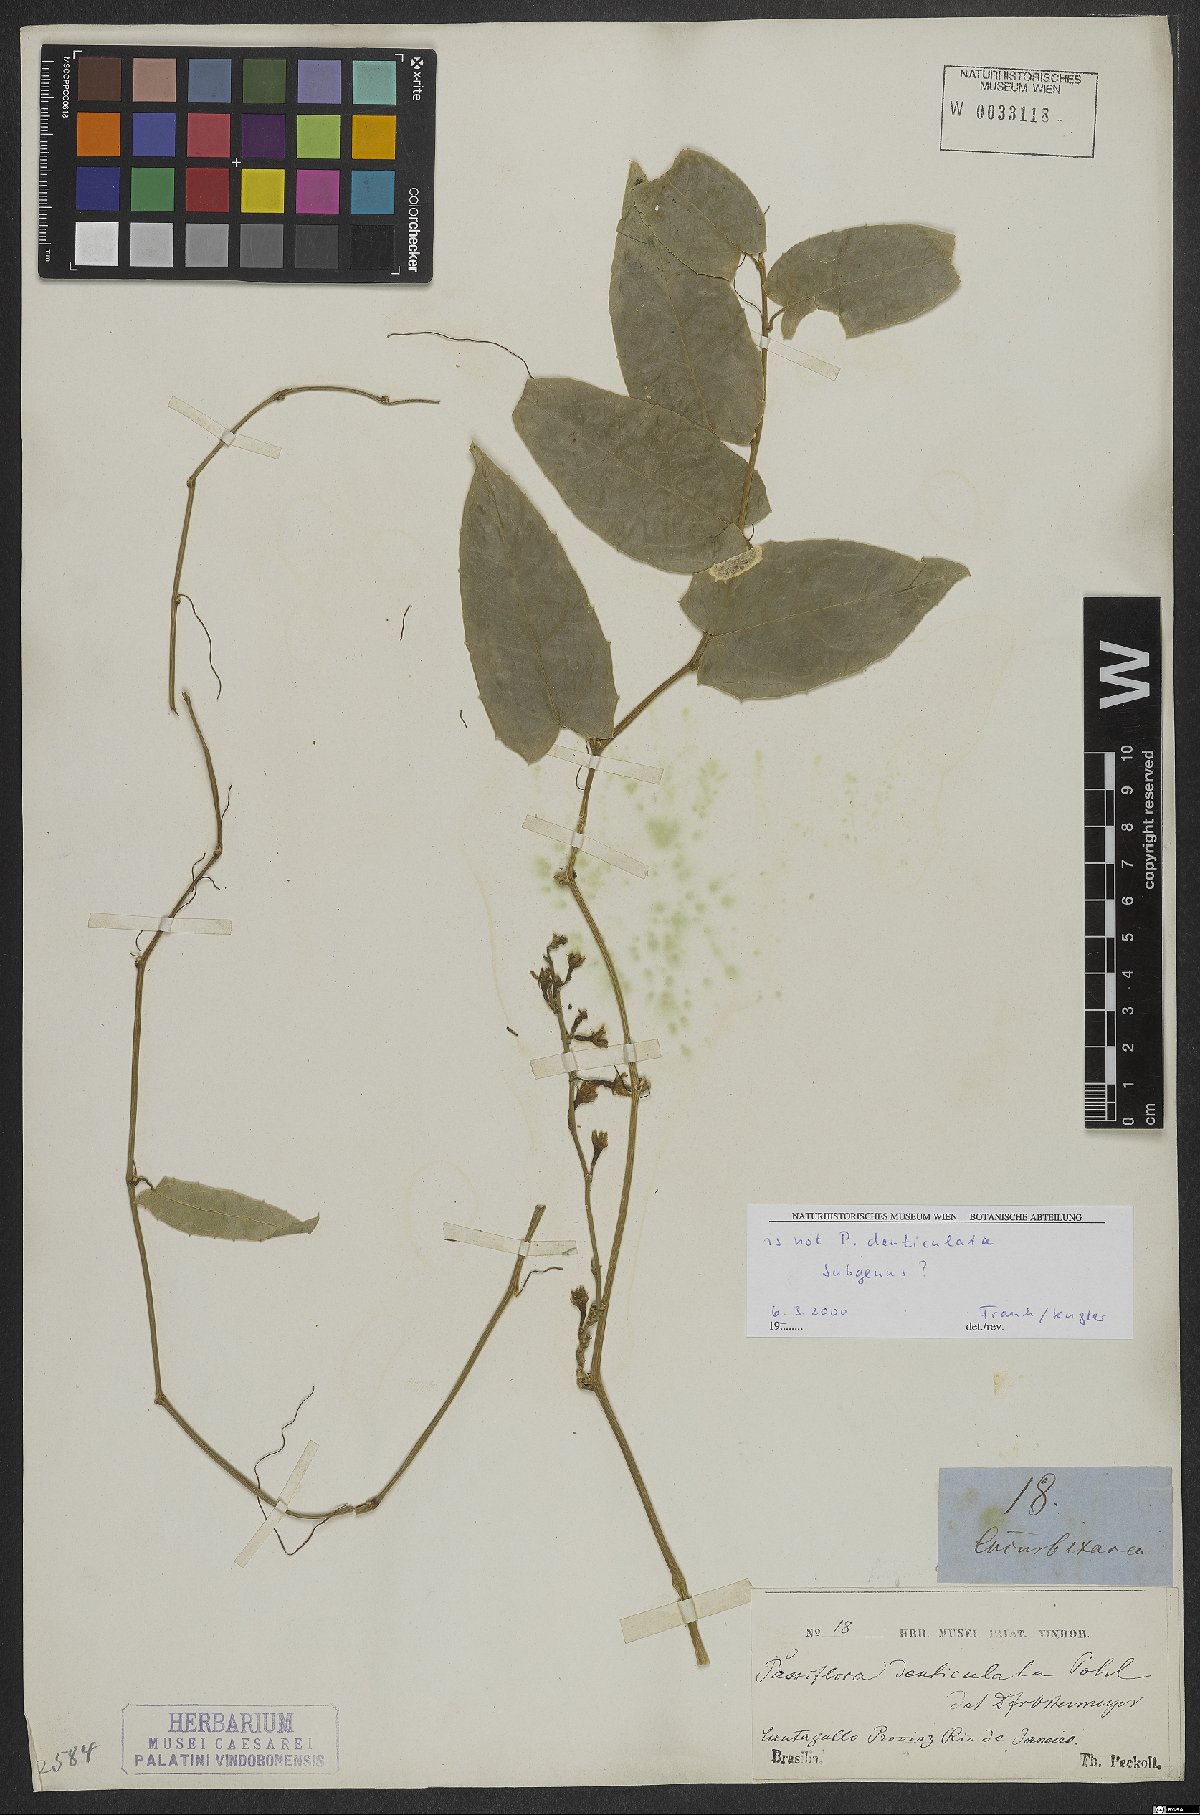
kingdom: Plantae
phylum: Tracheophyta
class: Magnoliopsida
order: Malpighiales
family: Passifloraceae
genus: Passiflora
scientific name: Passiflora
